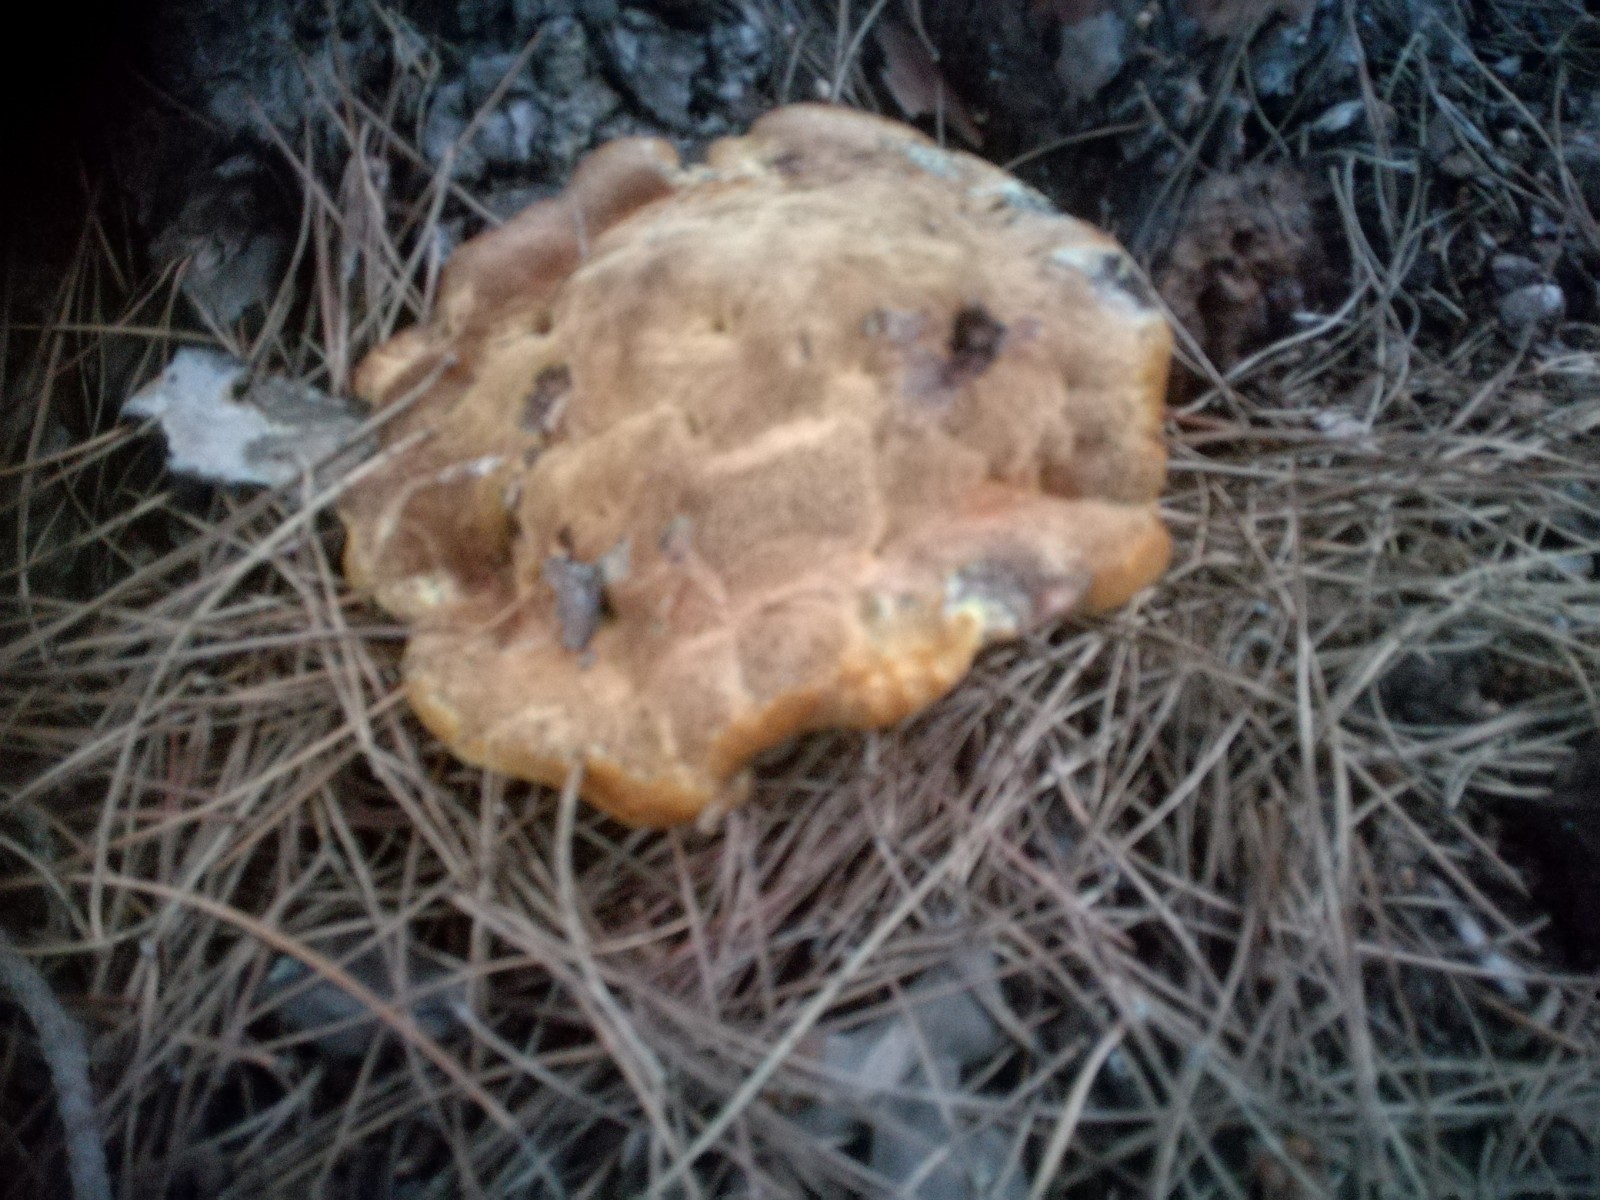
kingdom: Fungi
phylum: Basidiomycota
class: Agaricomycetes
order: Polyporales
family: Laetiporaceae
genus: Phaeolus
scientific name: Phaeolus schweinitzii
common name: brunporesvamp
